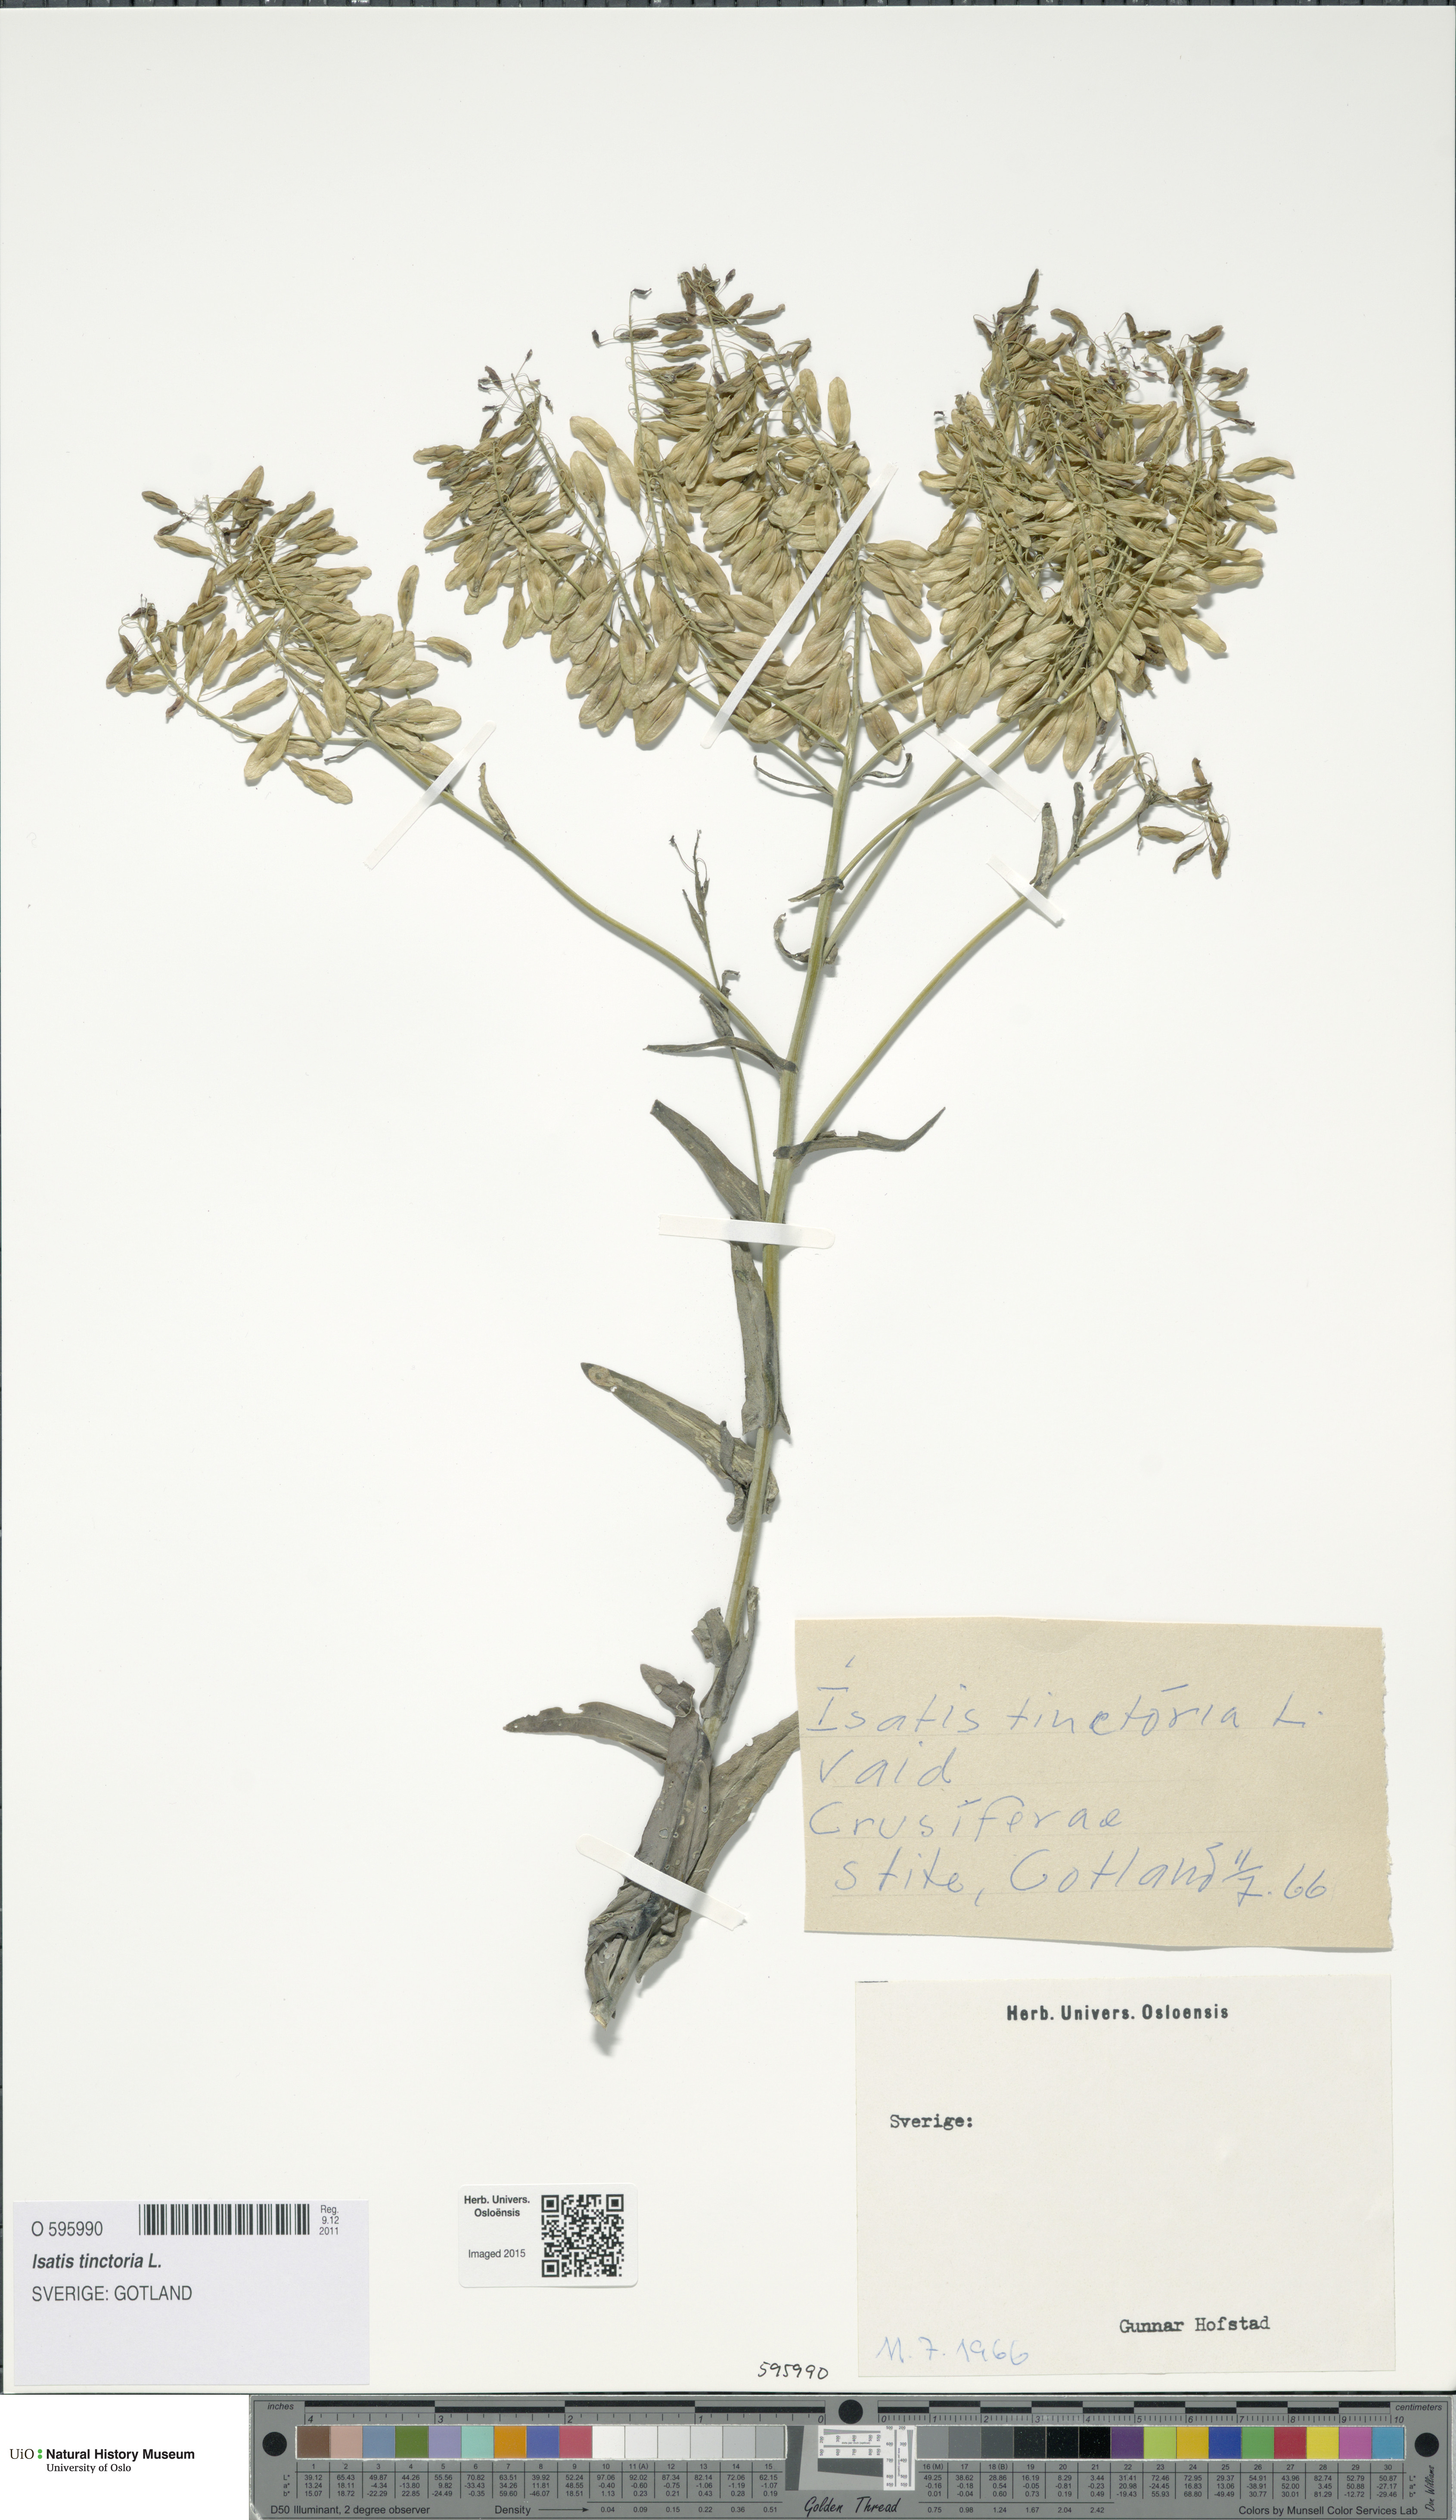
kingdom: Plantae
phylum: Tracheophyta
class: Magnoliopsida
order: Brassicales
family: Brassicaceae
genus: Isatis
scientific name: Isatis tinctoria
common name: Woad
